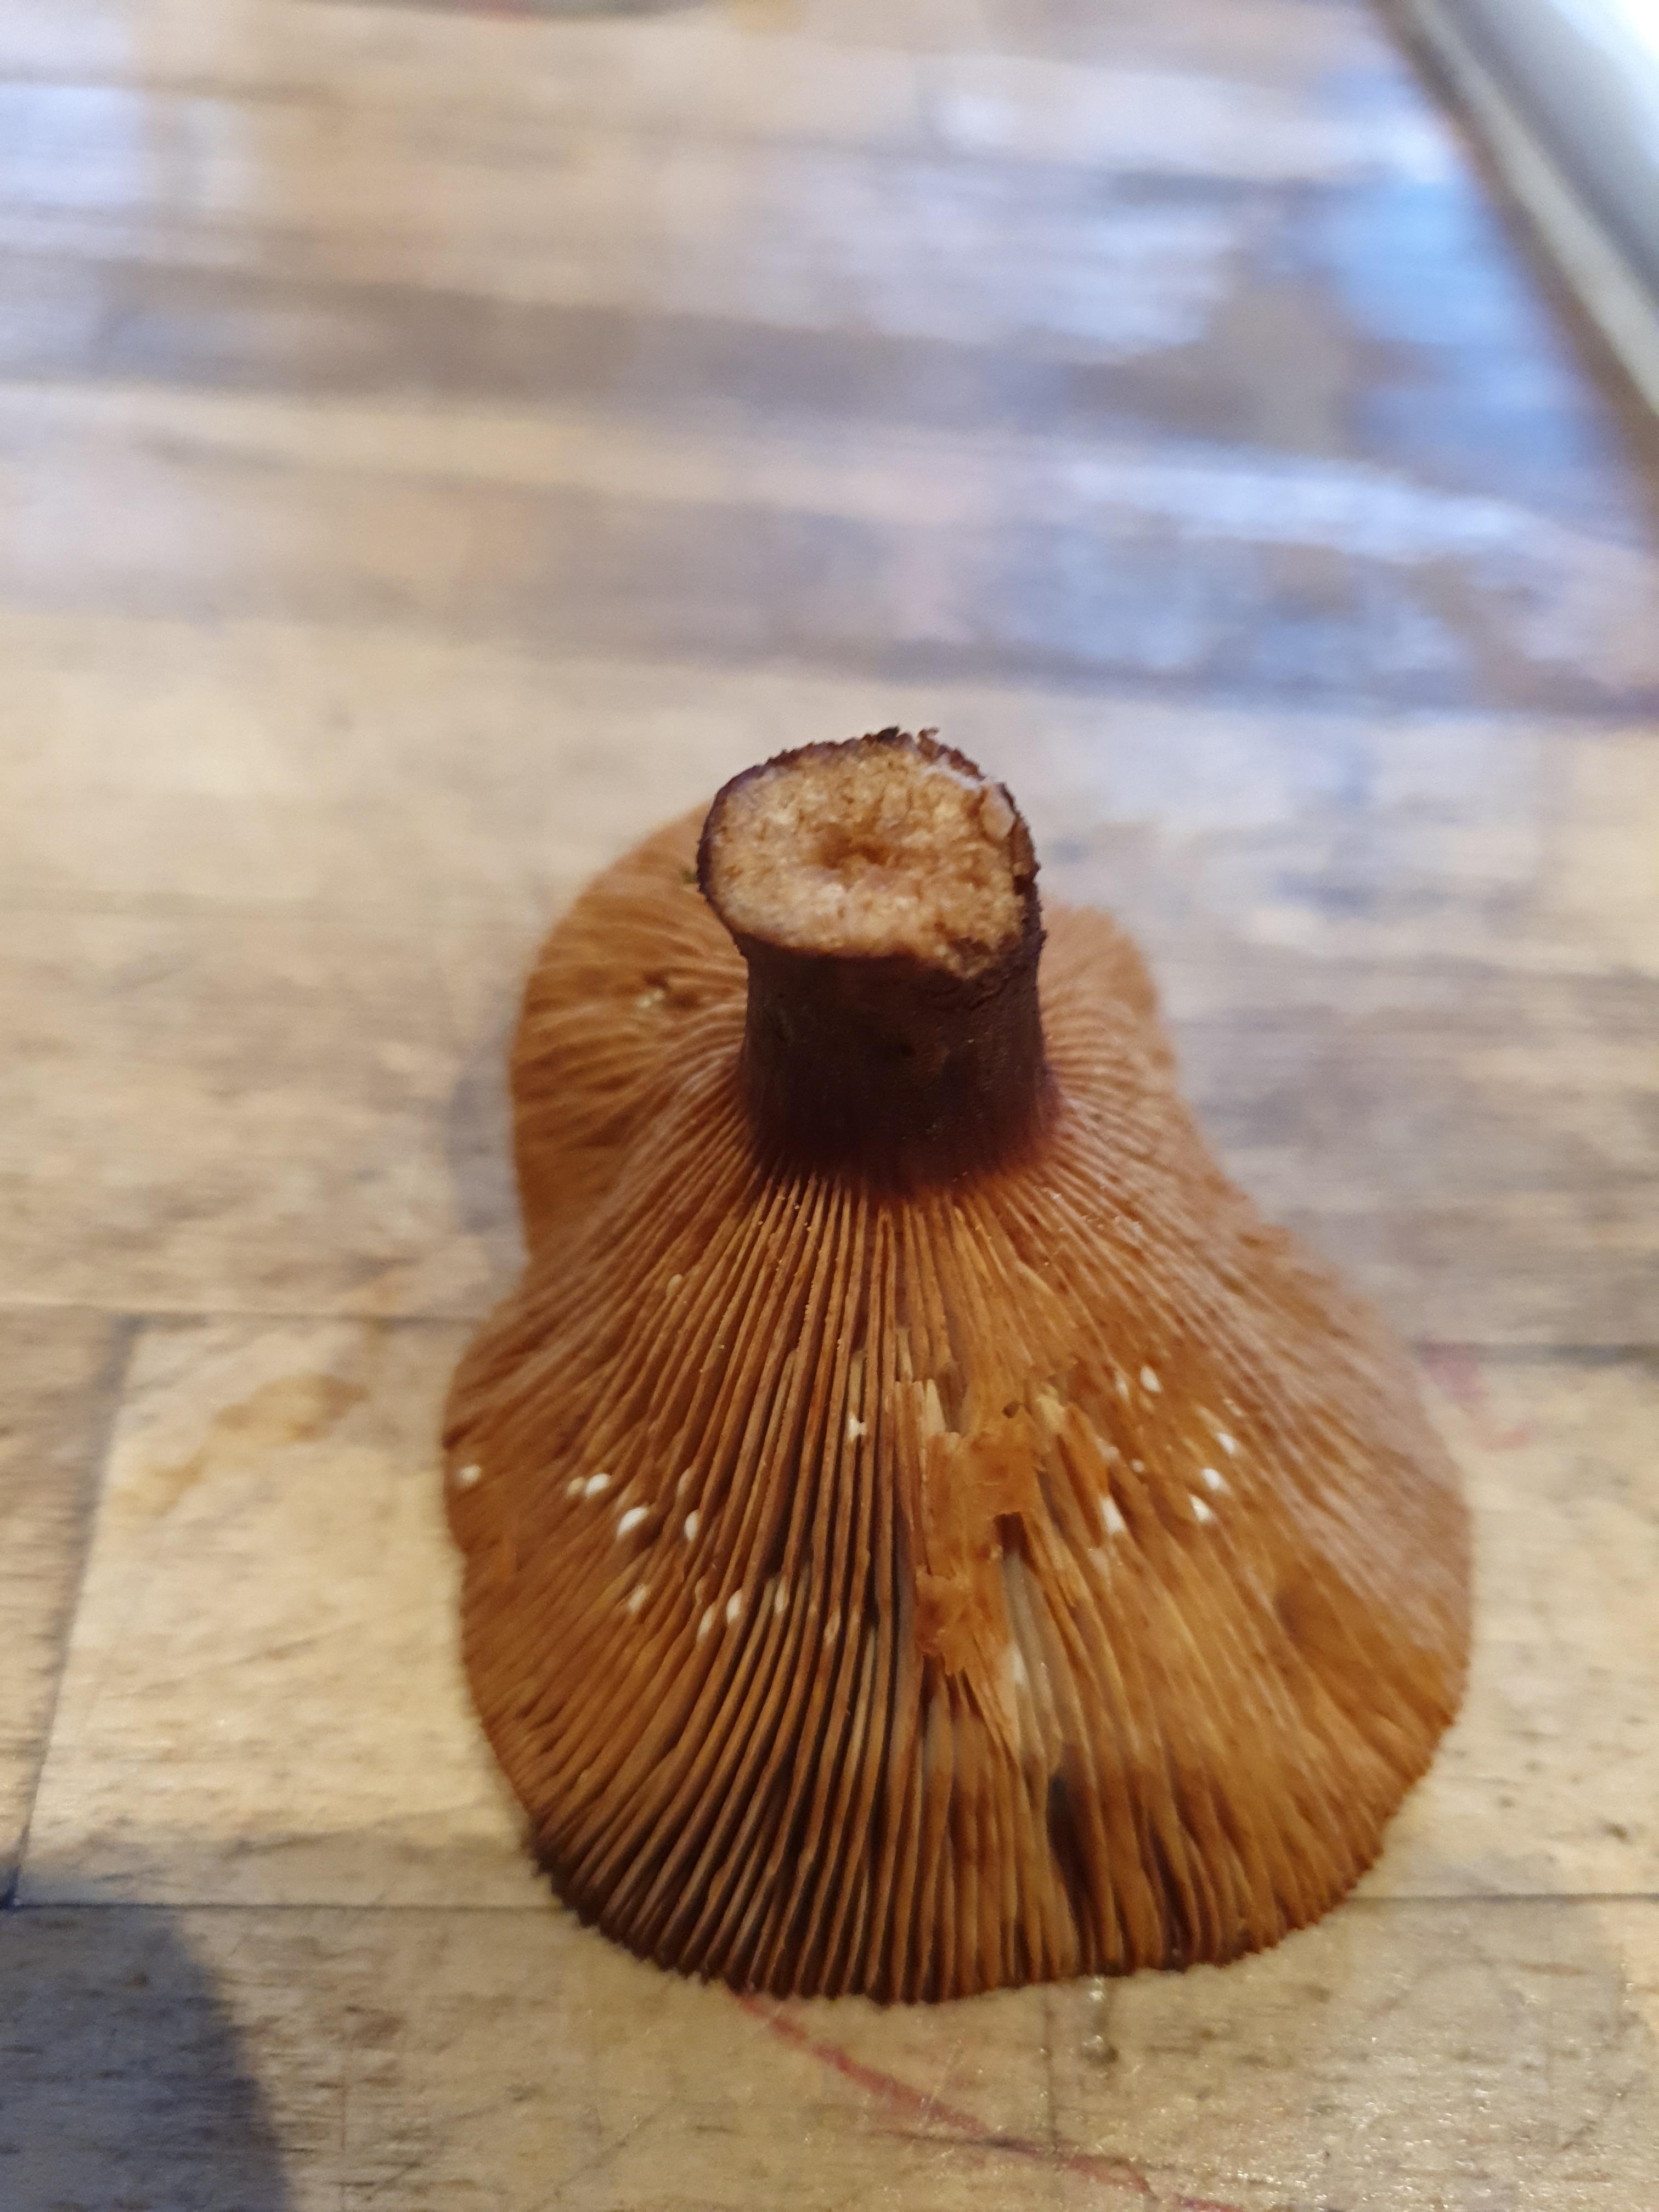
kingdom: Fungi
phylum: Basidiomycota
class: Agaricomycetes
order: Russulales
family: Russulaceae
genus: Lactarius
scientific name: Lactarius rufus
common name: rødbrun mælkehat
